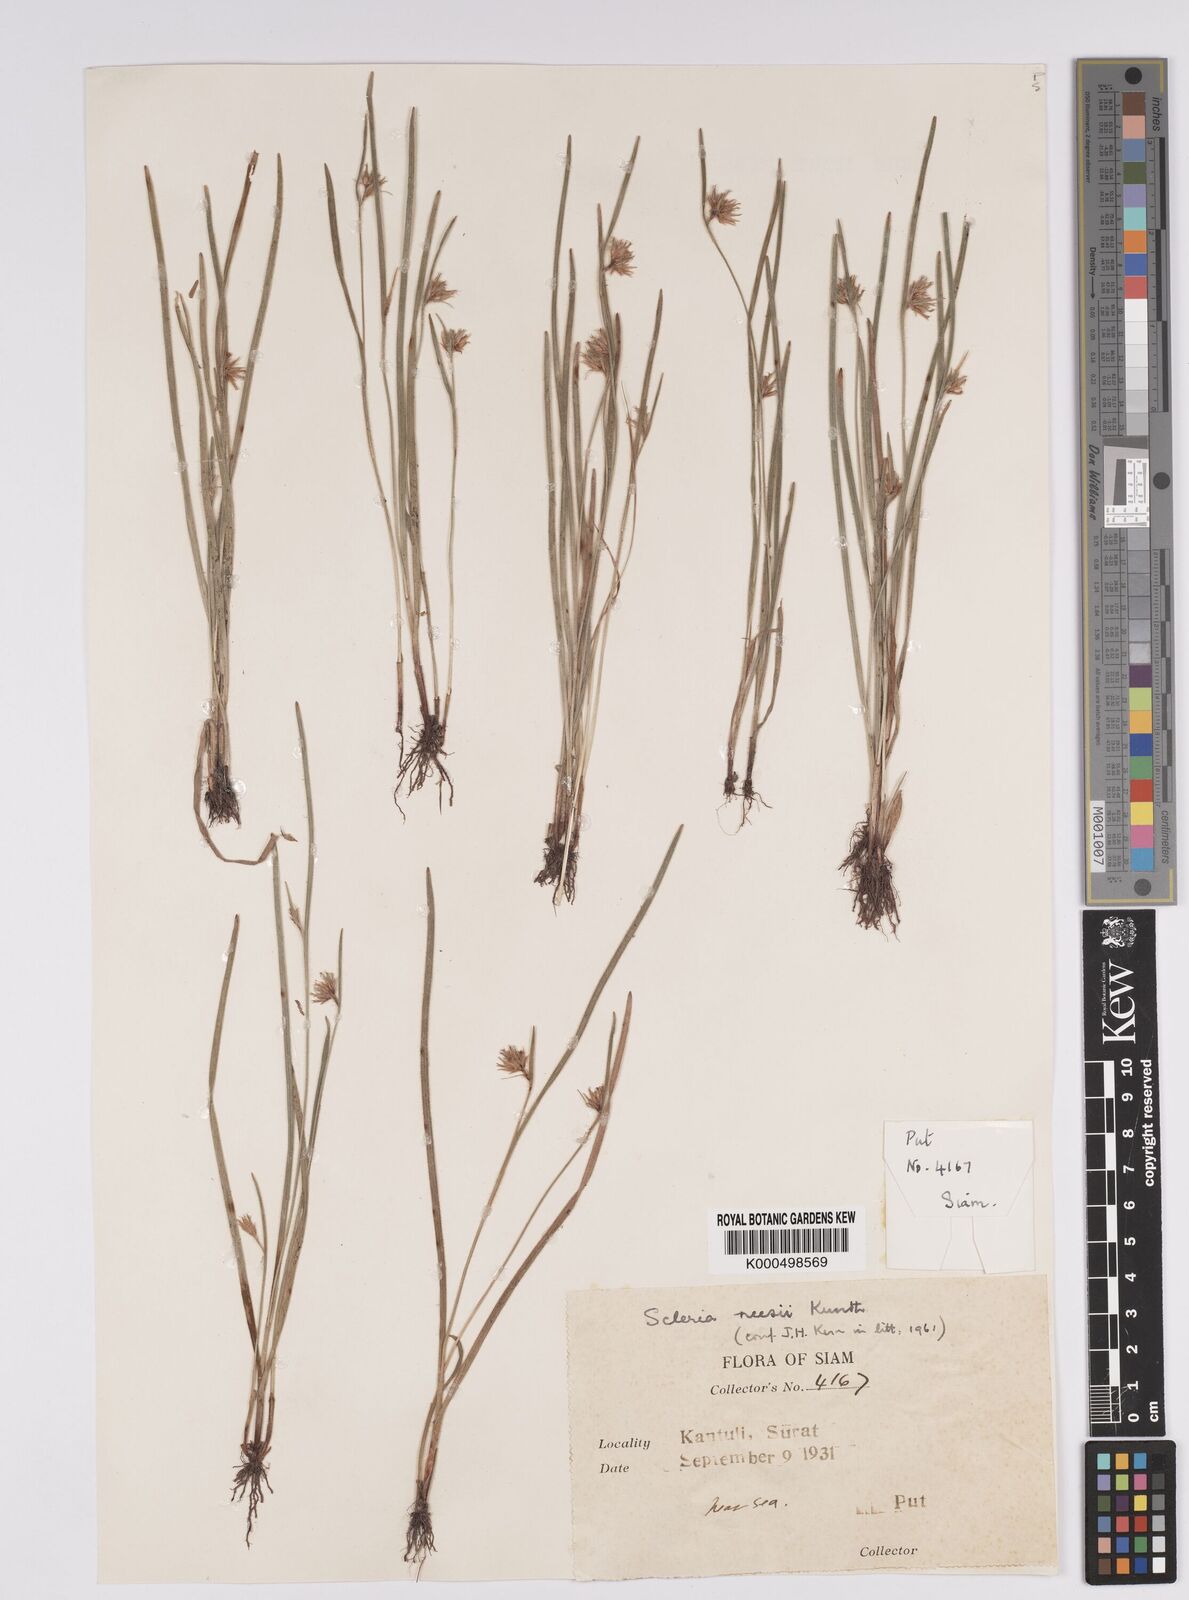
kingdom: Plantae
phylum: Tracheophyta
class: Liliopsida
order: Poales
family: Cyperaceae
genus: Scleria
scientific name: Scleria neesii
